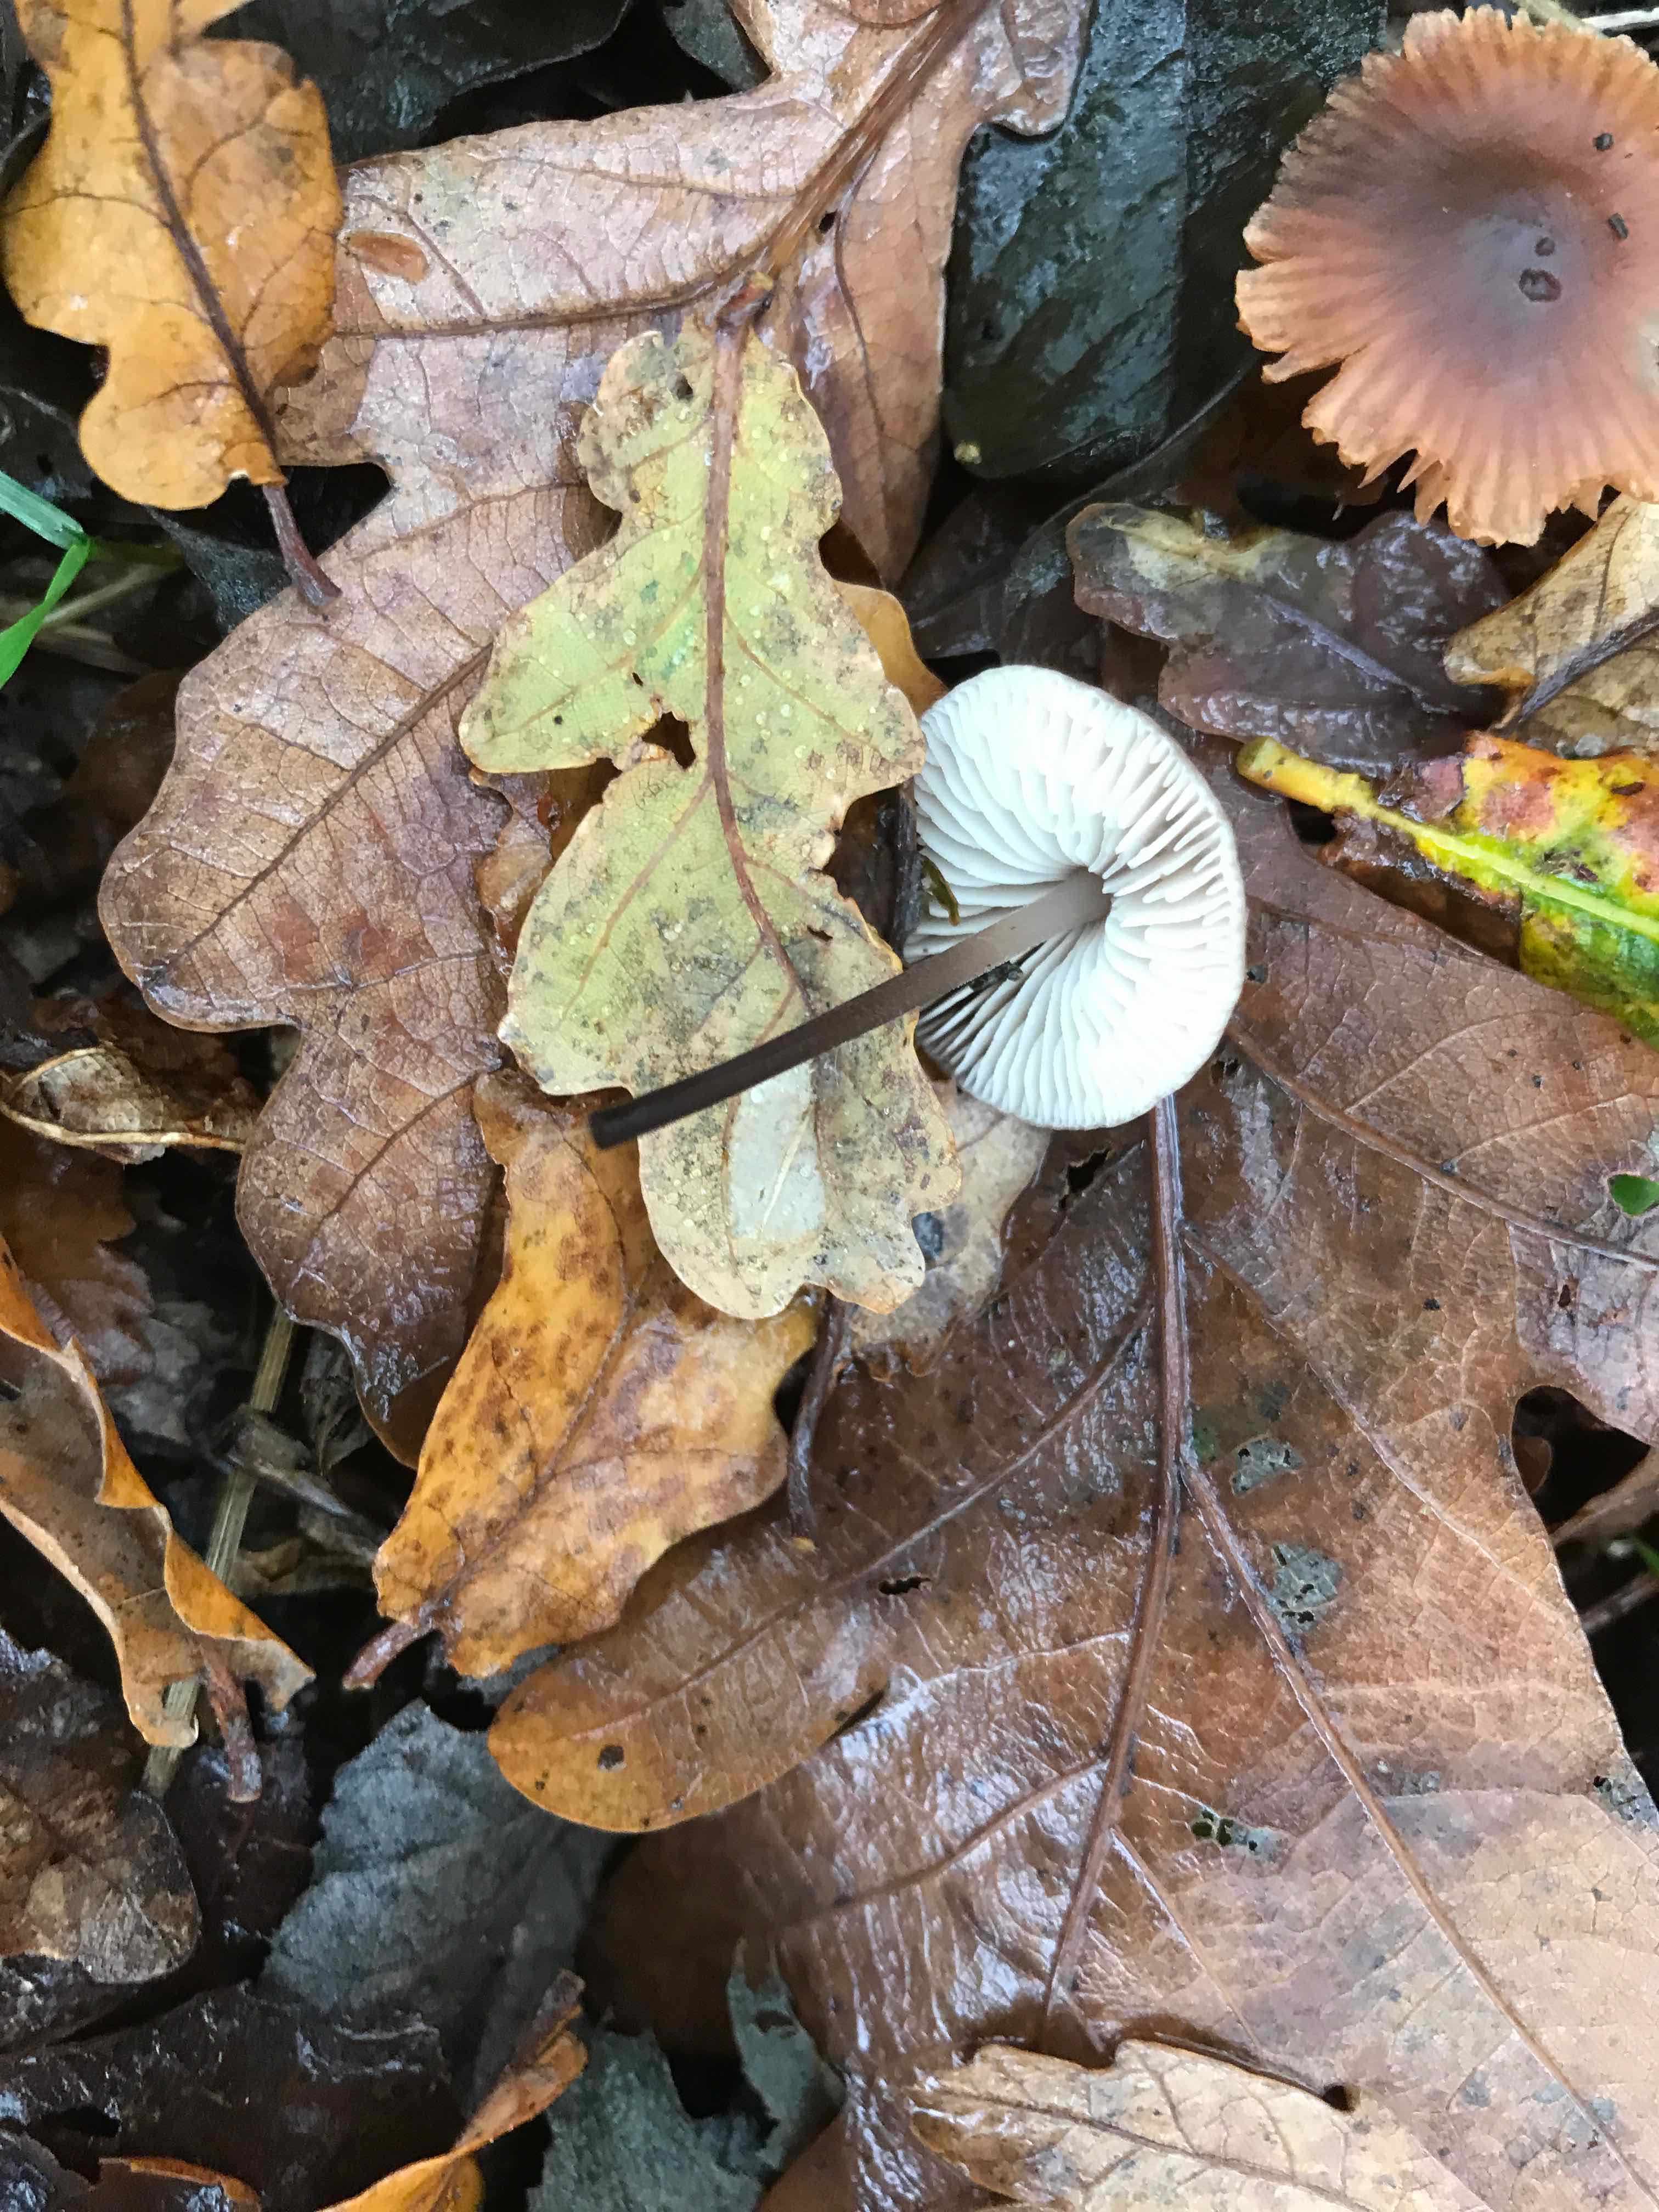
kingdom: Fungi
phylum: Basidiomycota
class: Agaricomycetes
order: Agaricales
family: Omphalotaceae
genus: Mycetinis
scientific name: Mycetinis alliaceus
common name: stor løghat
